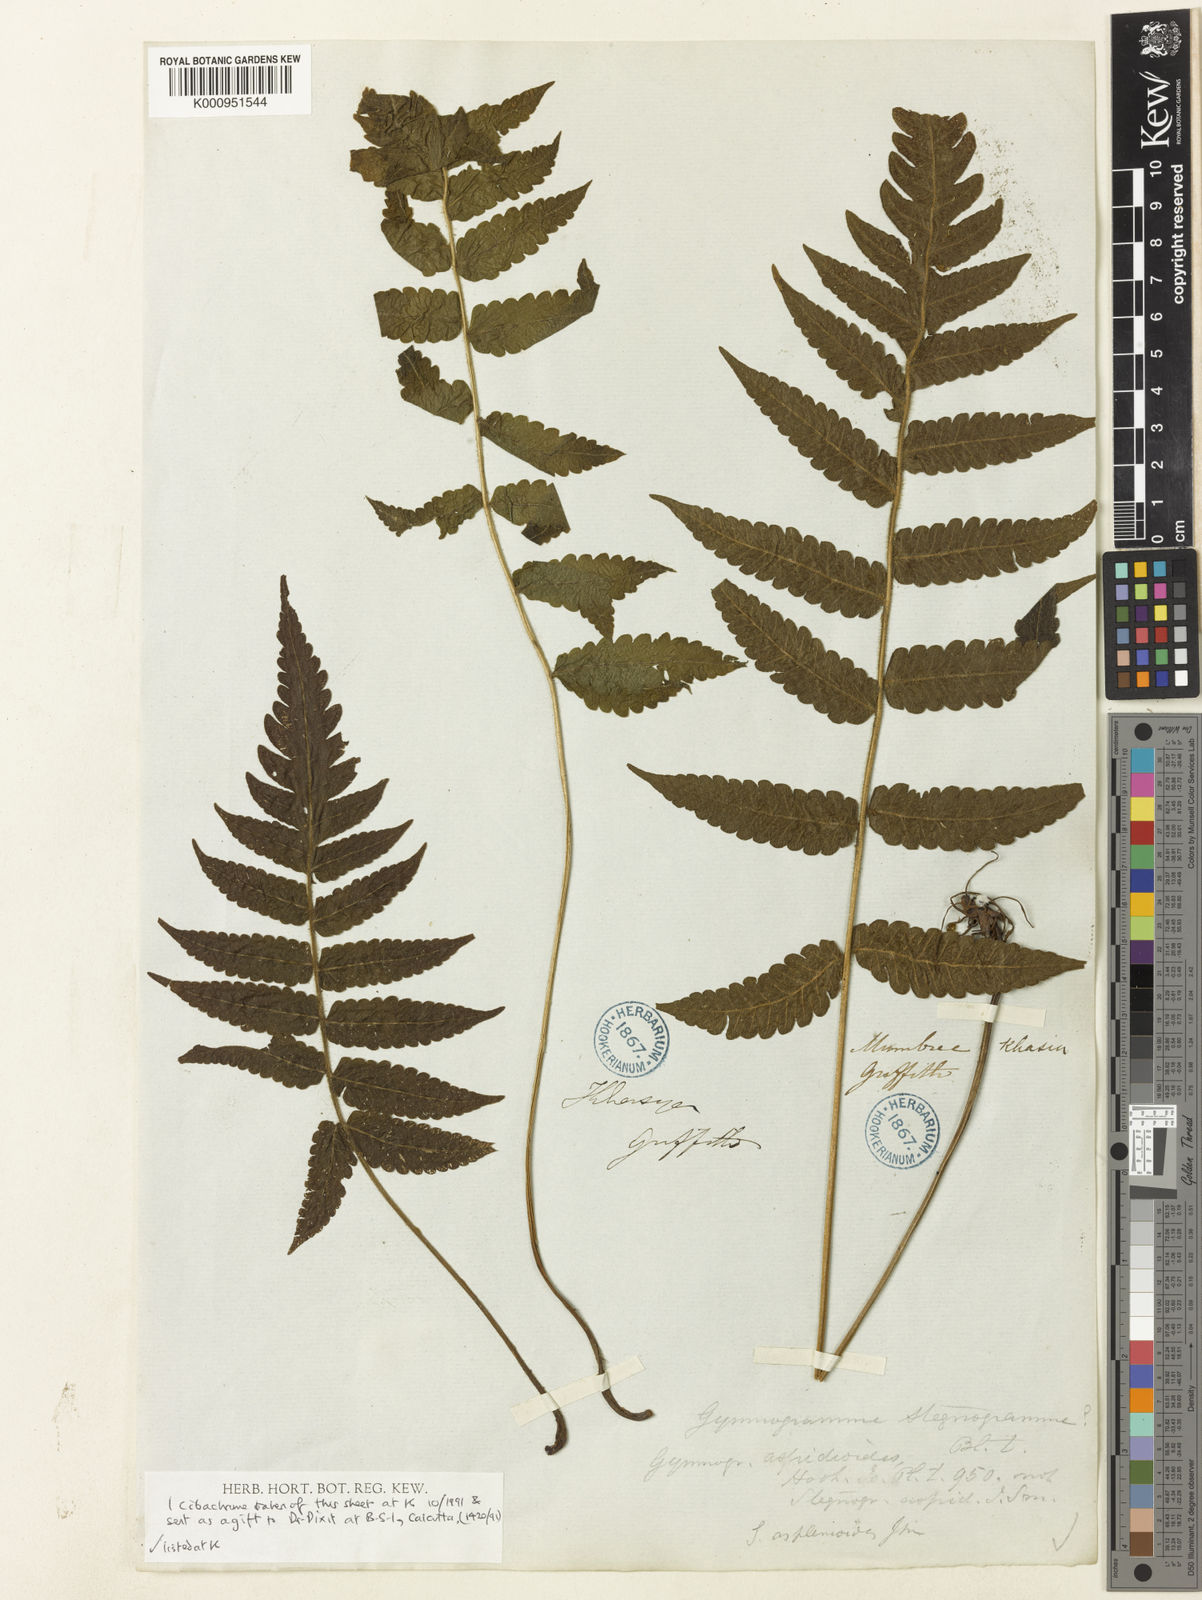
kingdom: Plantae
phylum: Tracheophyta
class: Polypodiopsida
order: Polypodiales
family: Thelypteridaceae
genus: Leptogramma
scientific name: Leptogramma stegnogrammopsis
